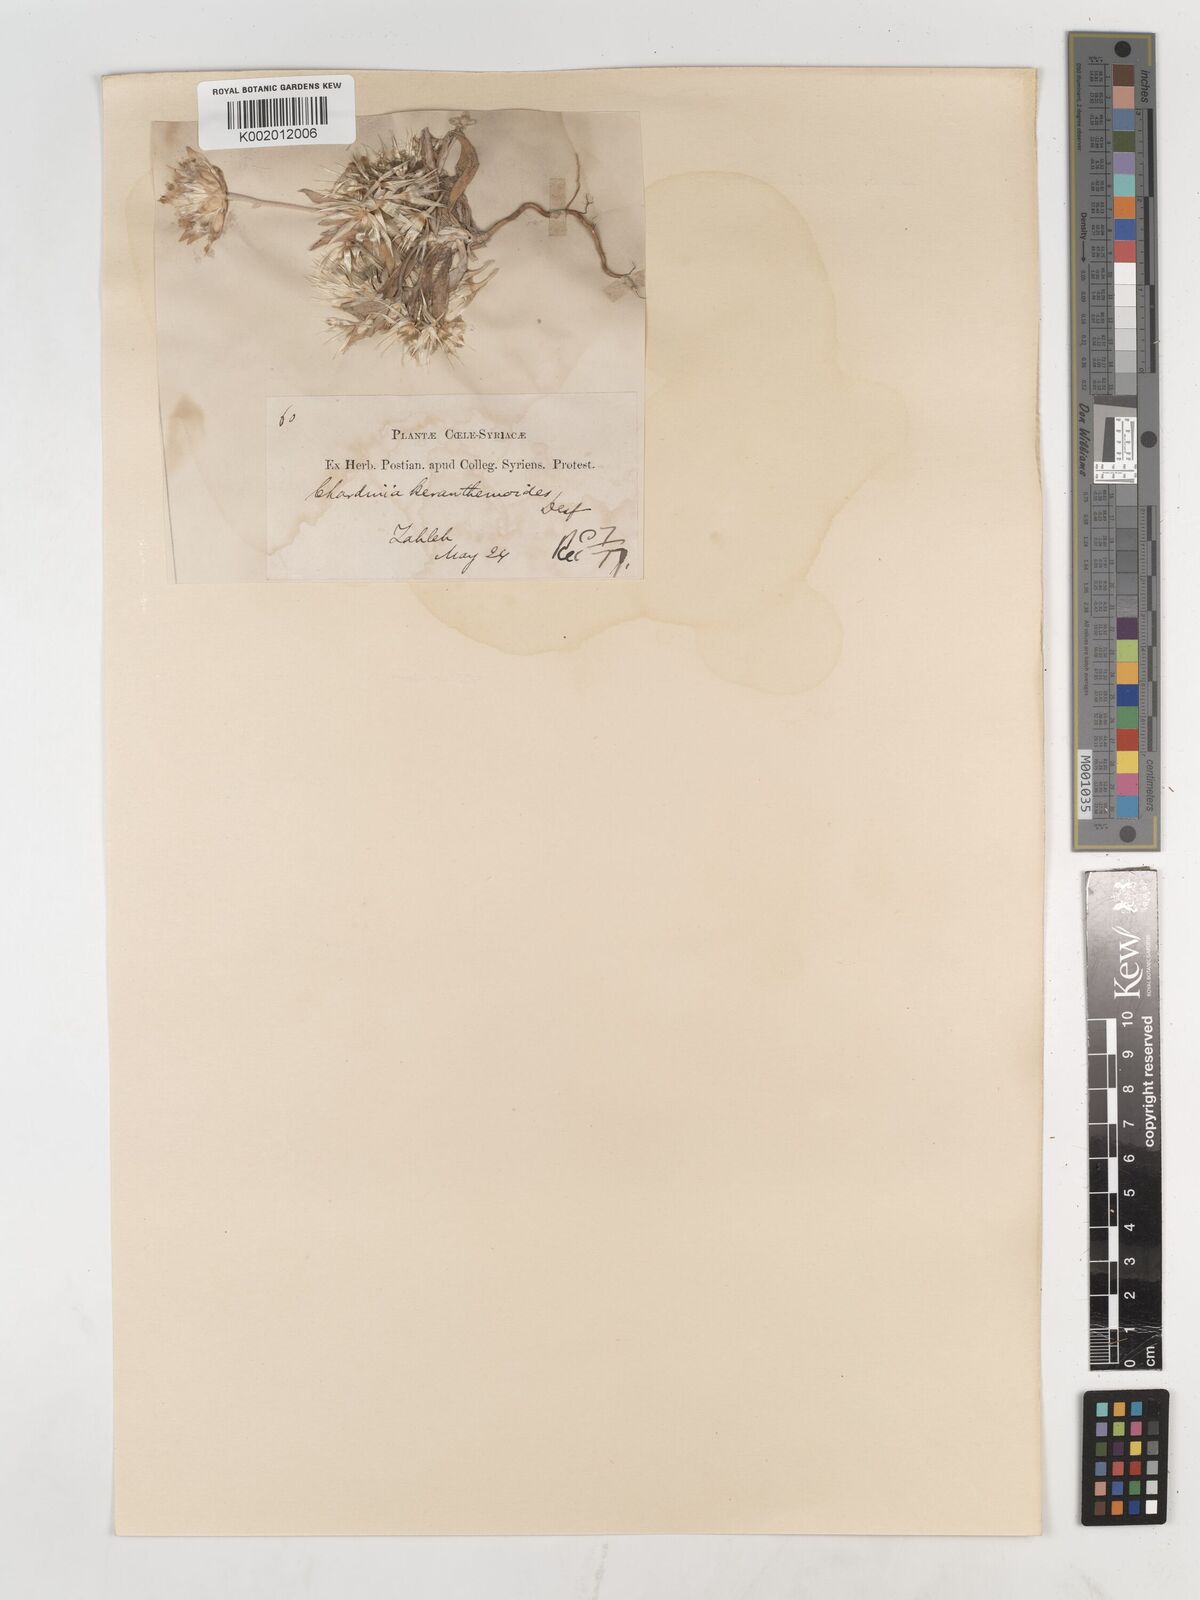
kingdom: Plantae
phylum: Tracheophyta
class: Magnoliopsida
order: Asterales
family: Asteraceae
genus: Chardinia
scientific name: Chardinia orientalis
